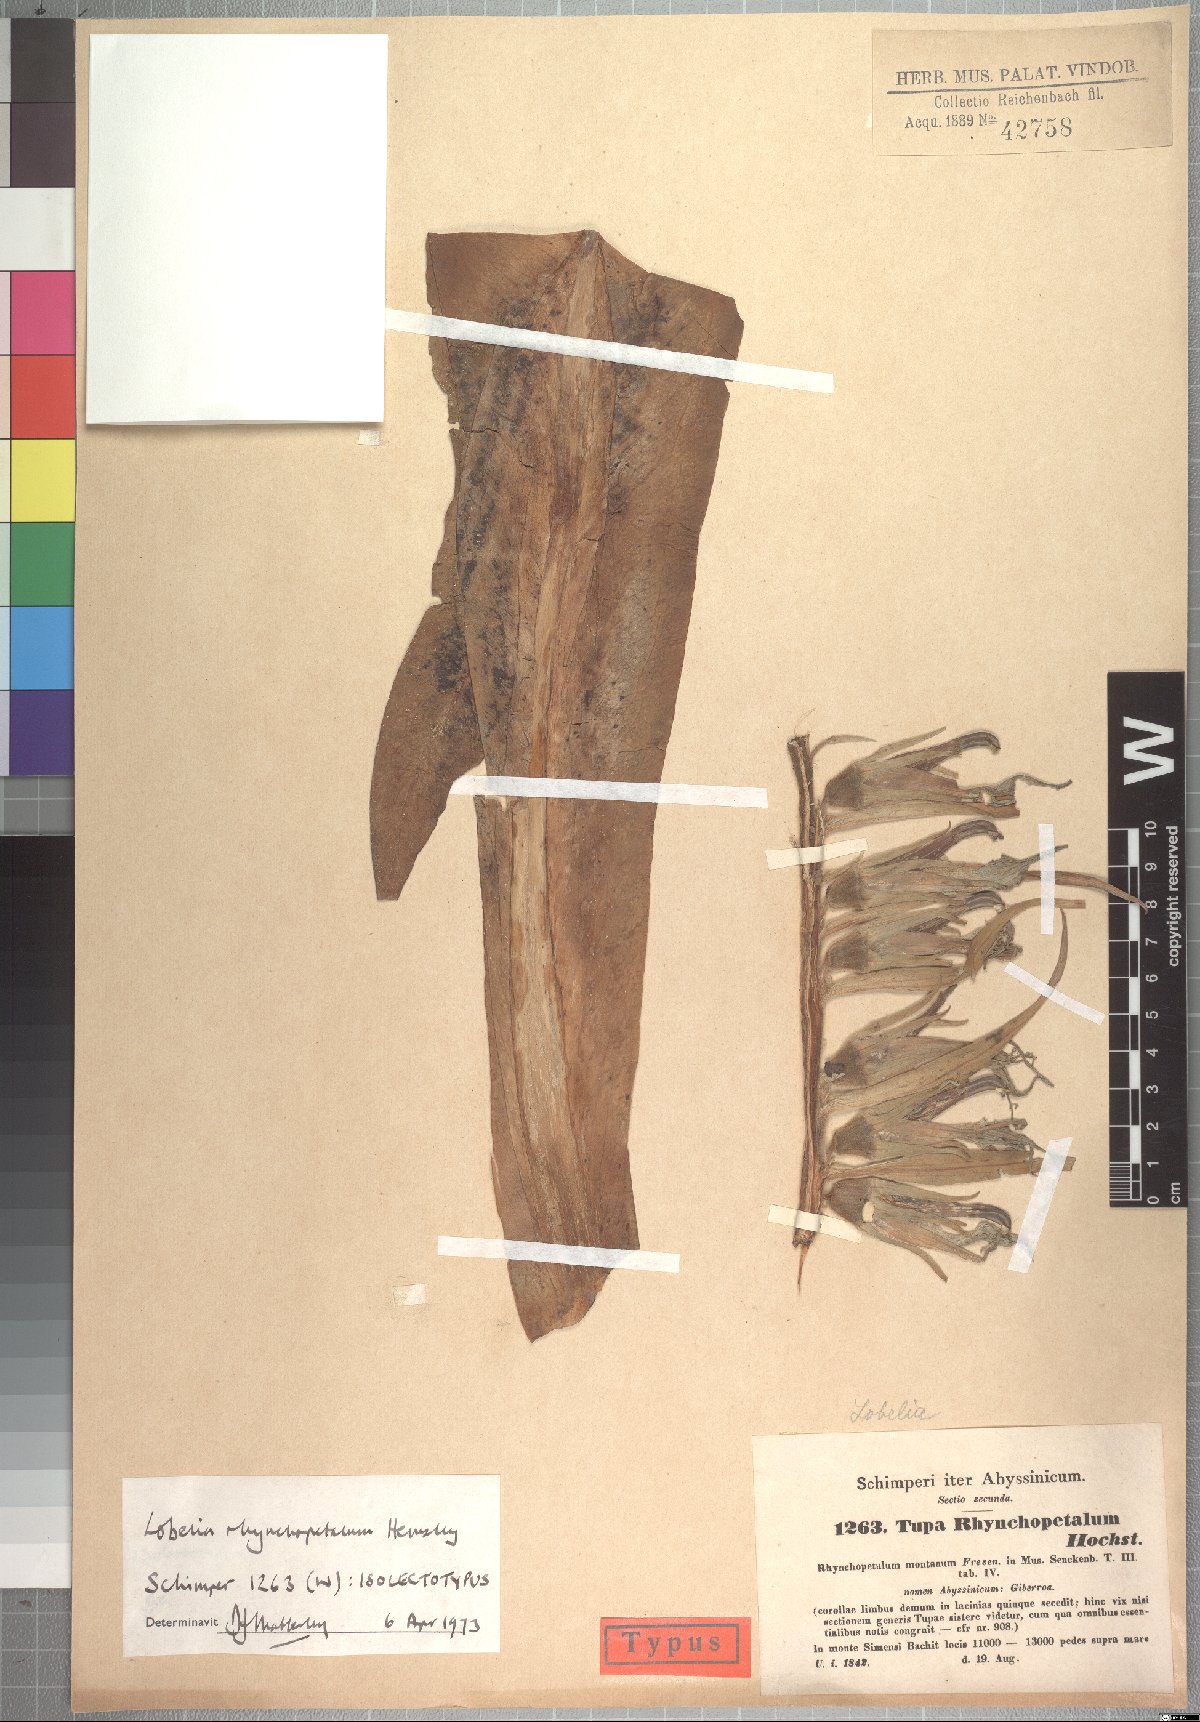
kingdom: Plantae
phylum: Tracheophyta
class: Magnoliopsida
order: Asterales
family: Campanulaceae
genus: Lobelia
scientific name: Lobelia rhynchopetalum
